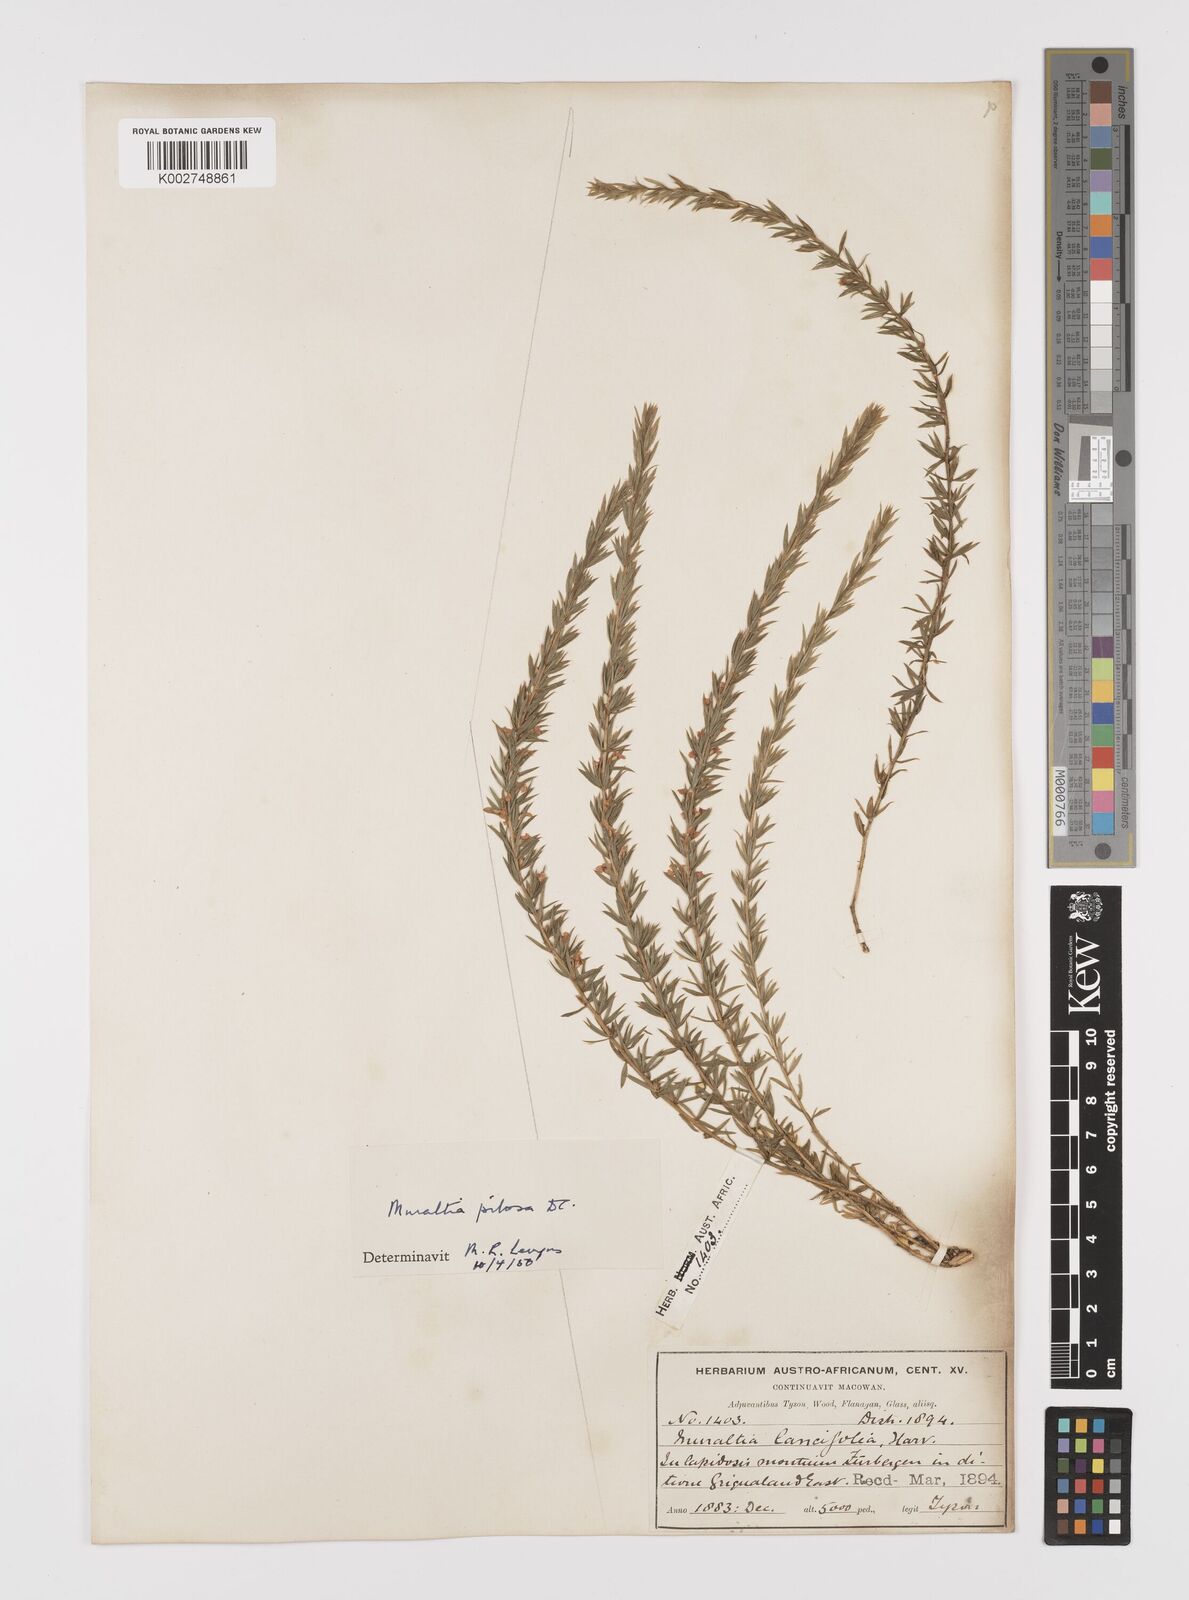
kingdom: Plantae
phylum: Tracheophyta
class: Magnoliopsida
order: Fabales
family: Polygalaceae
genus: Muraltia
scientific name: Muraltia lancifolia
